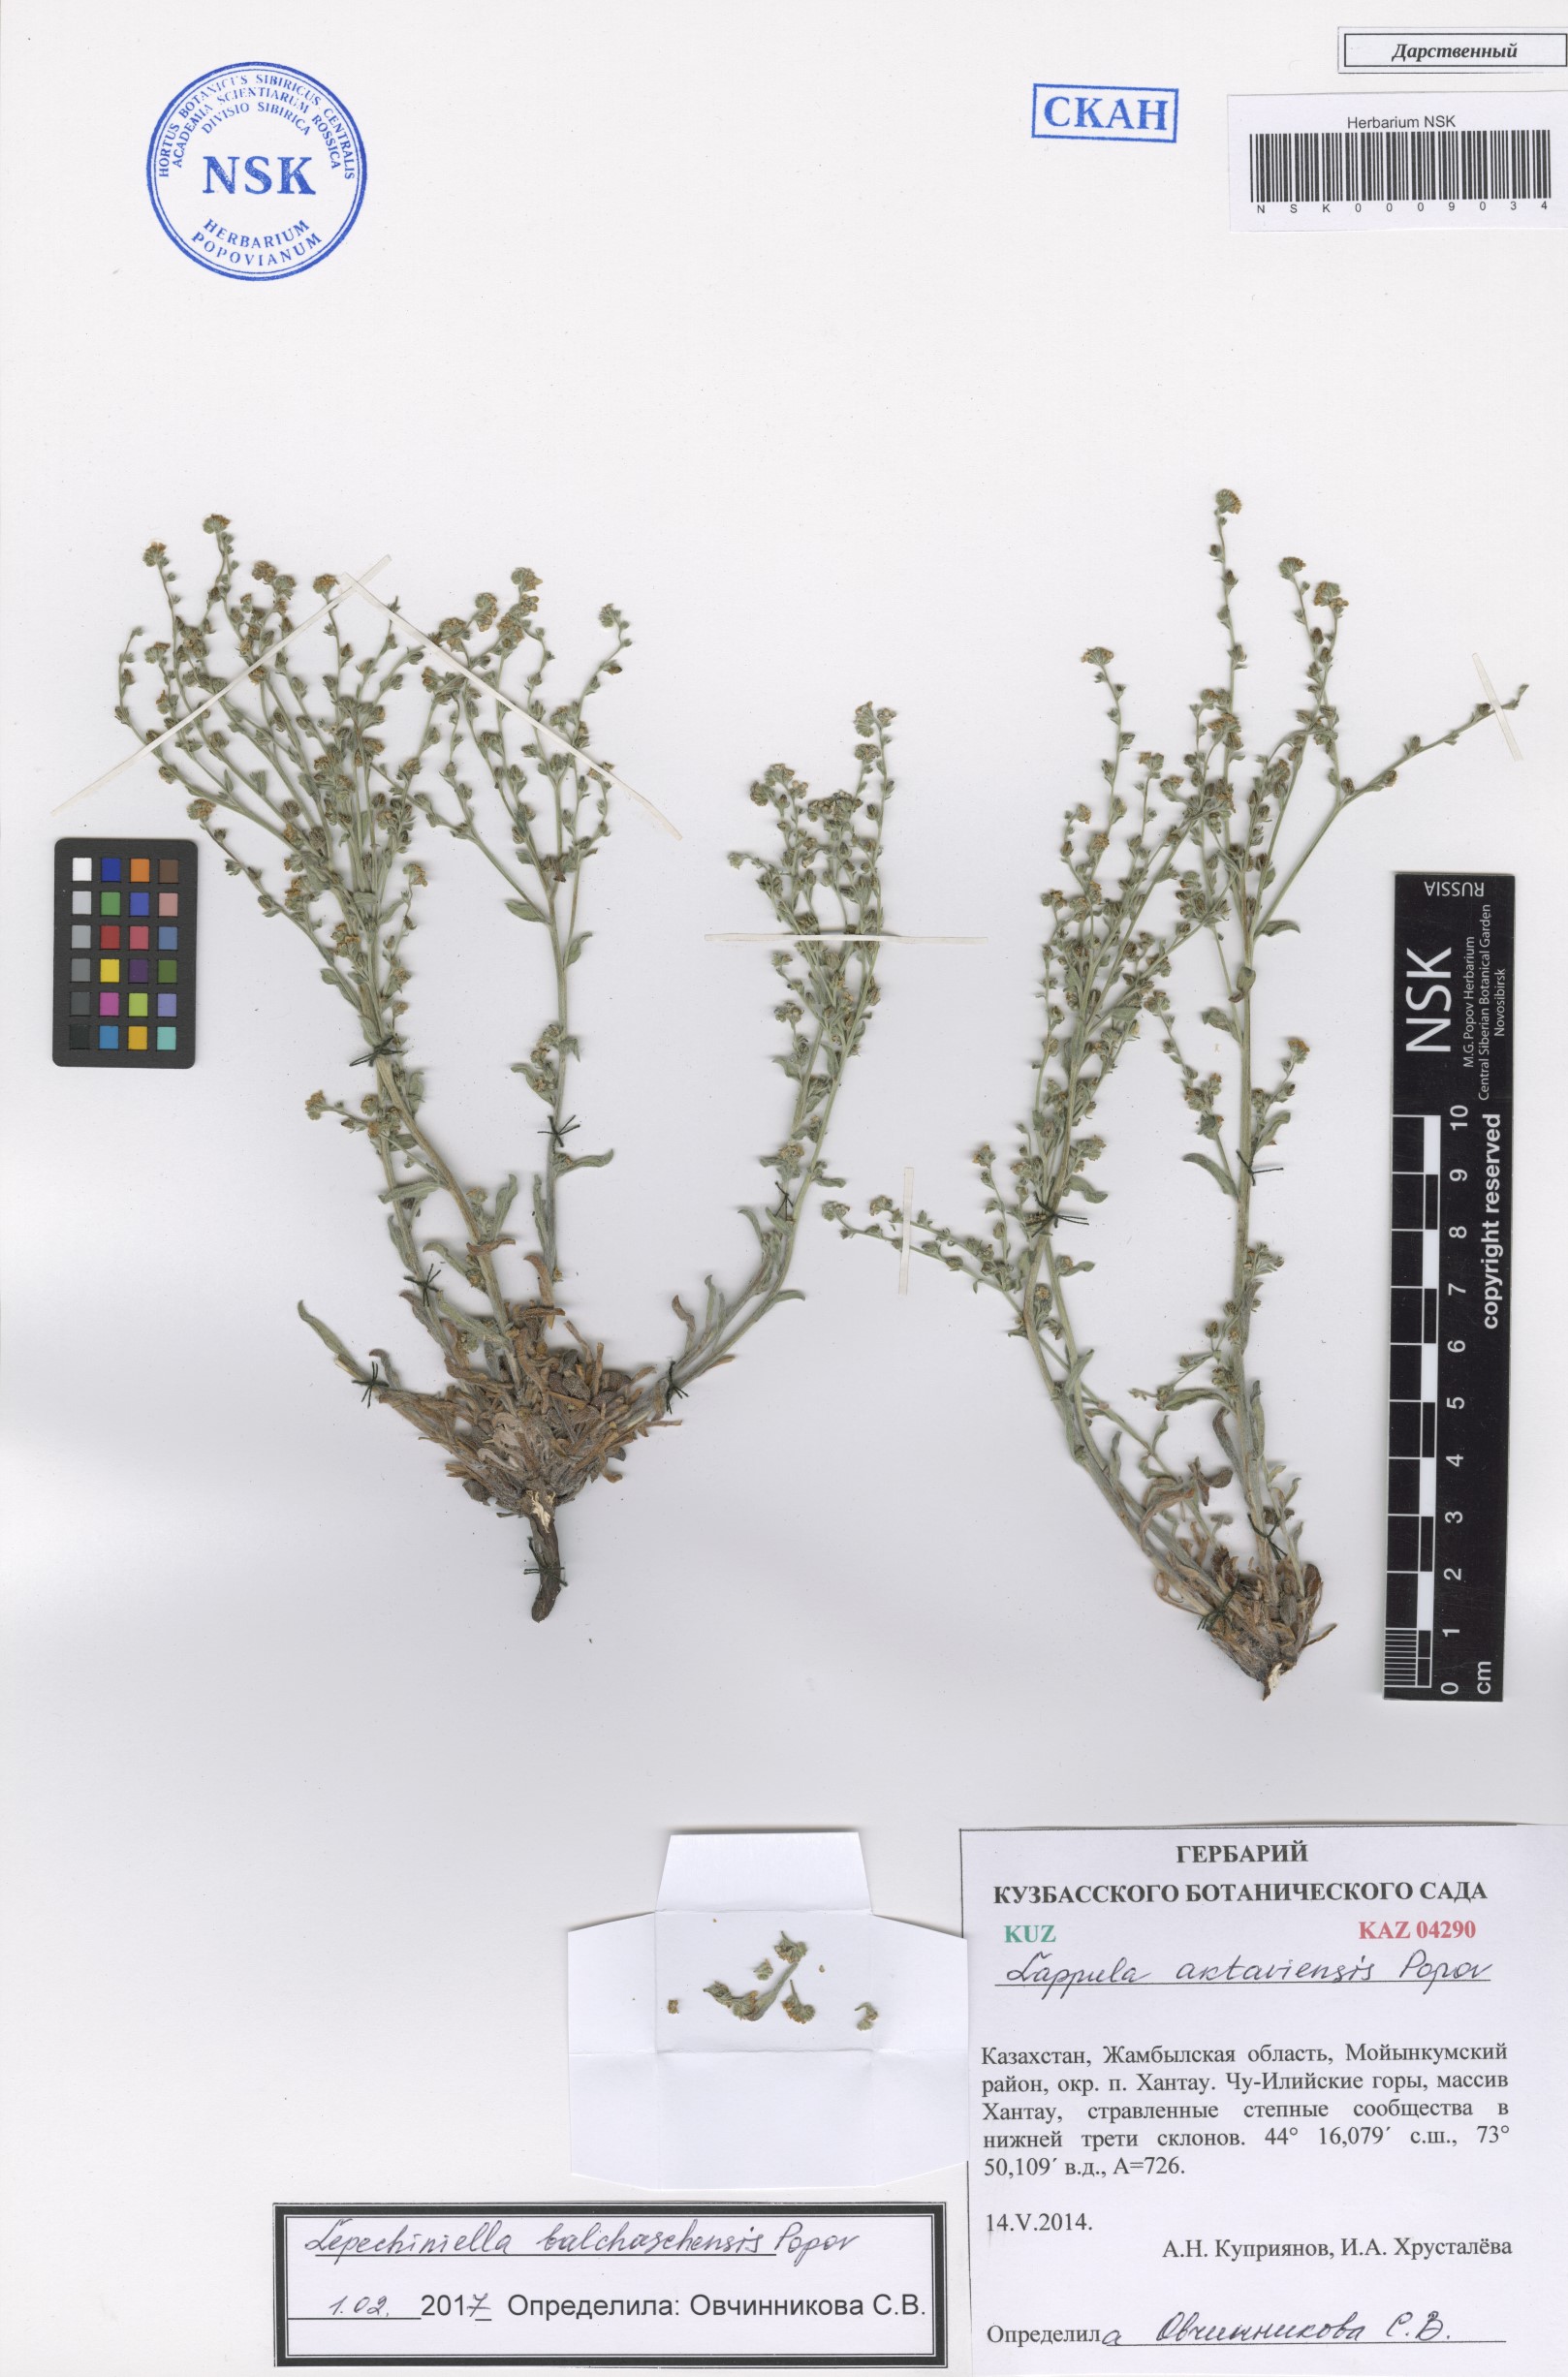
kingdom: Plantae
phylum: Tracheophyta
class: Magnoliopsida
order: Boraginales
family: Boraginaceae
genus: Lepechiniella
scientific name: Lepechiniella lasiocarpa
